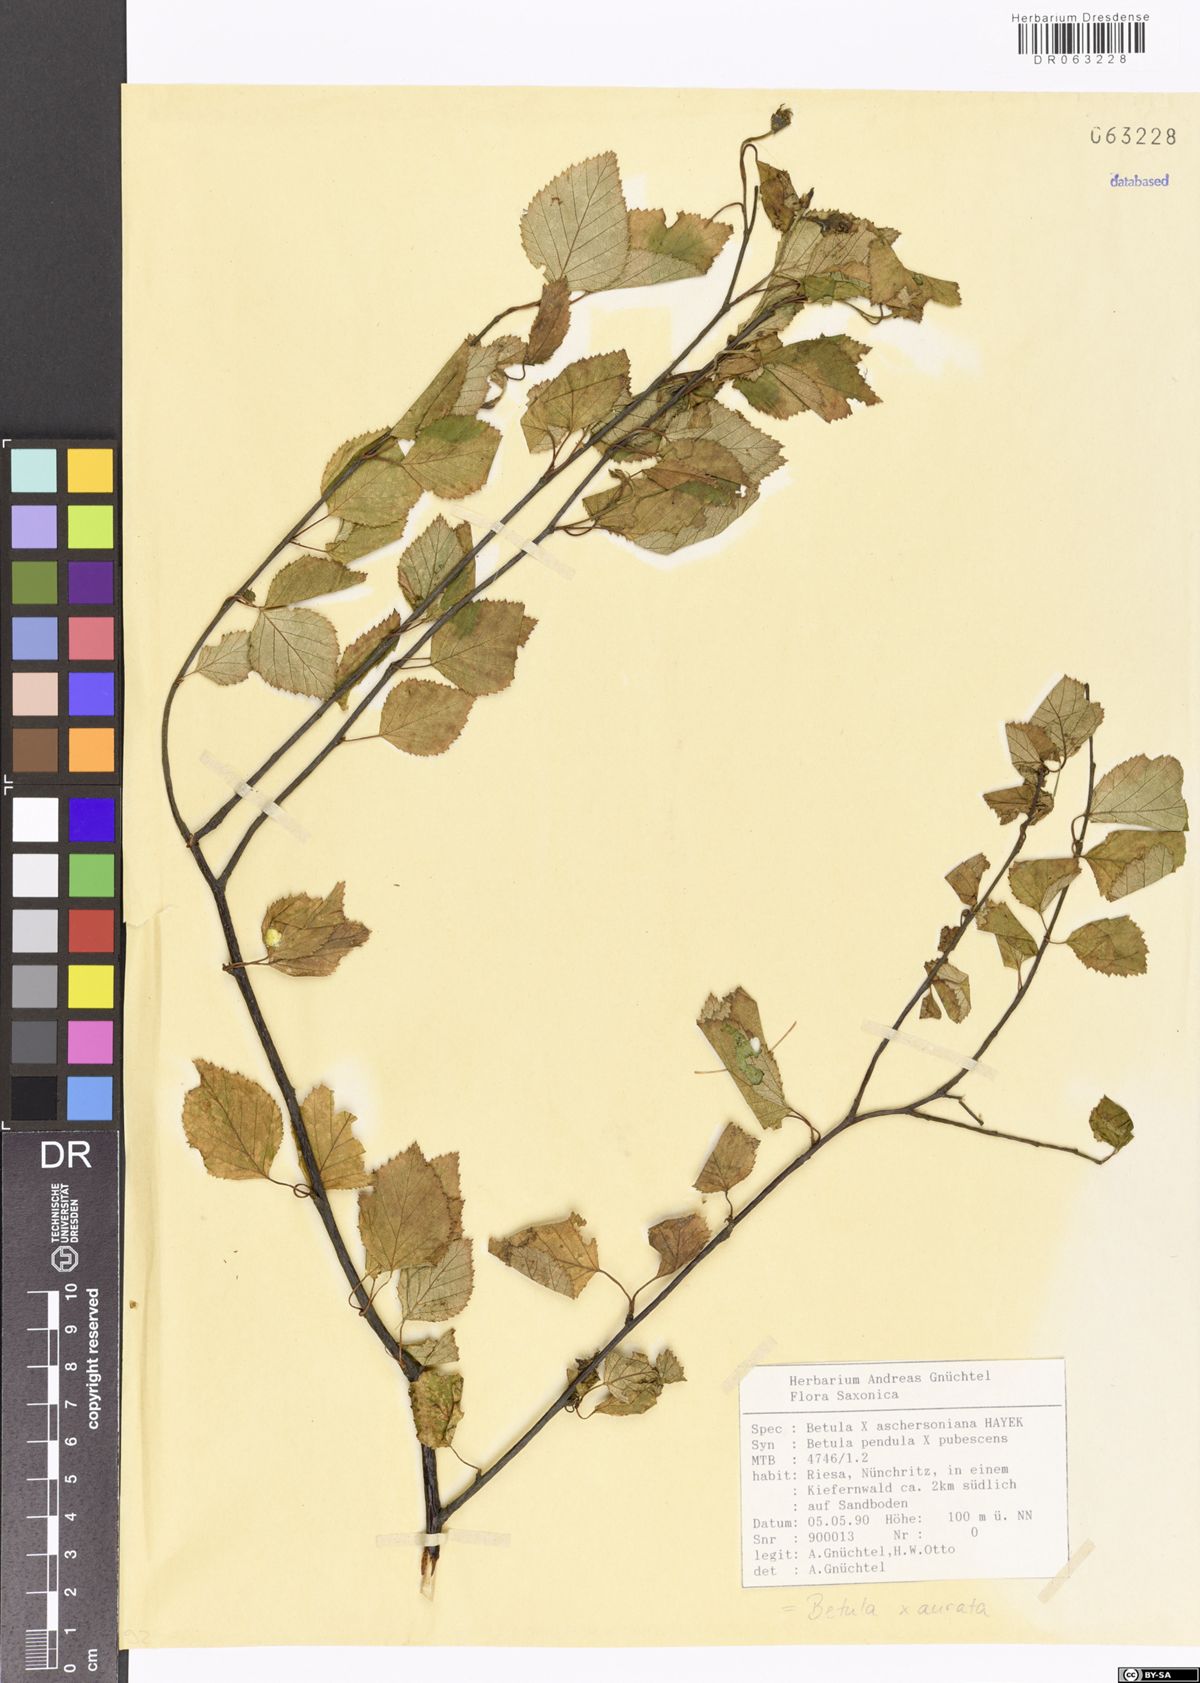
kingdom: Plantae
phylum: Tracheophyta
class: Magnoliopsida
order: Fagales
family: Betulaceae
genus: Betula
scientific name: Betula aurata
